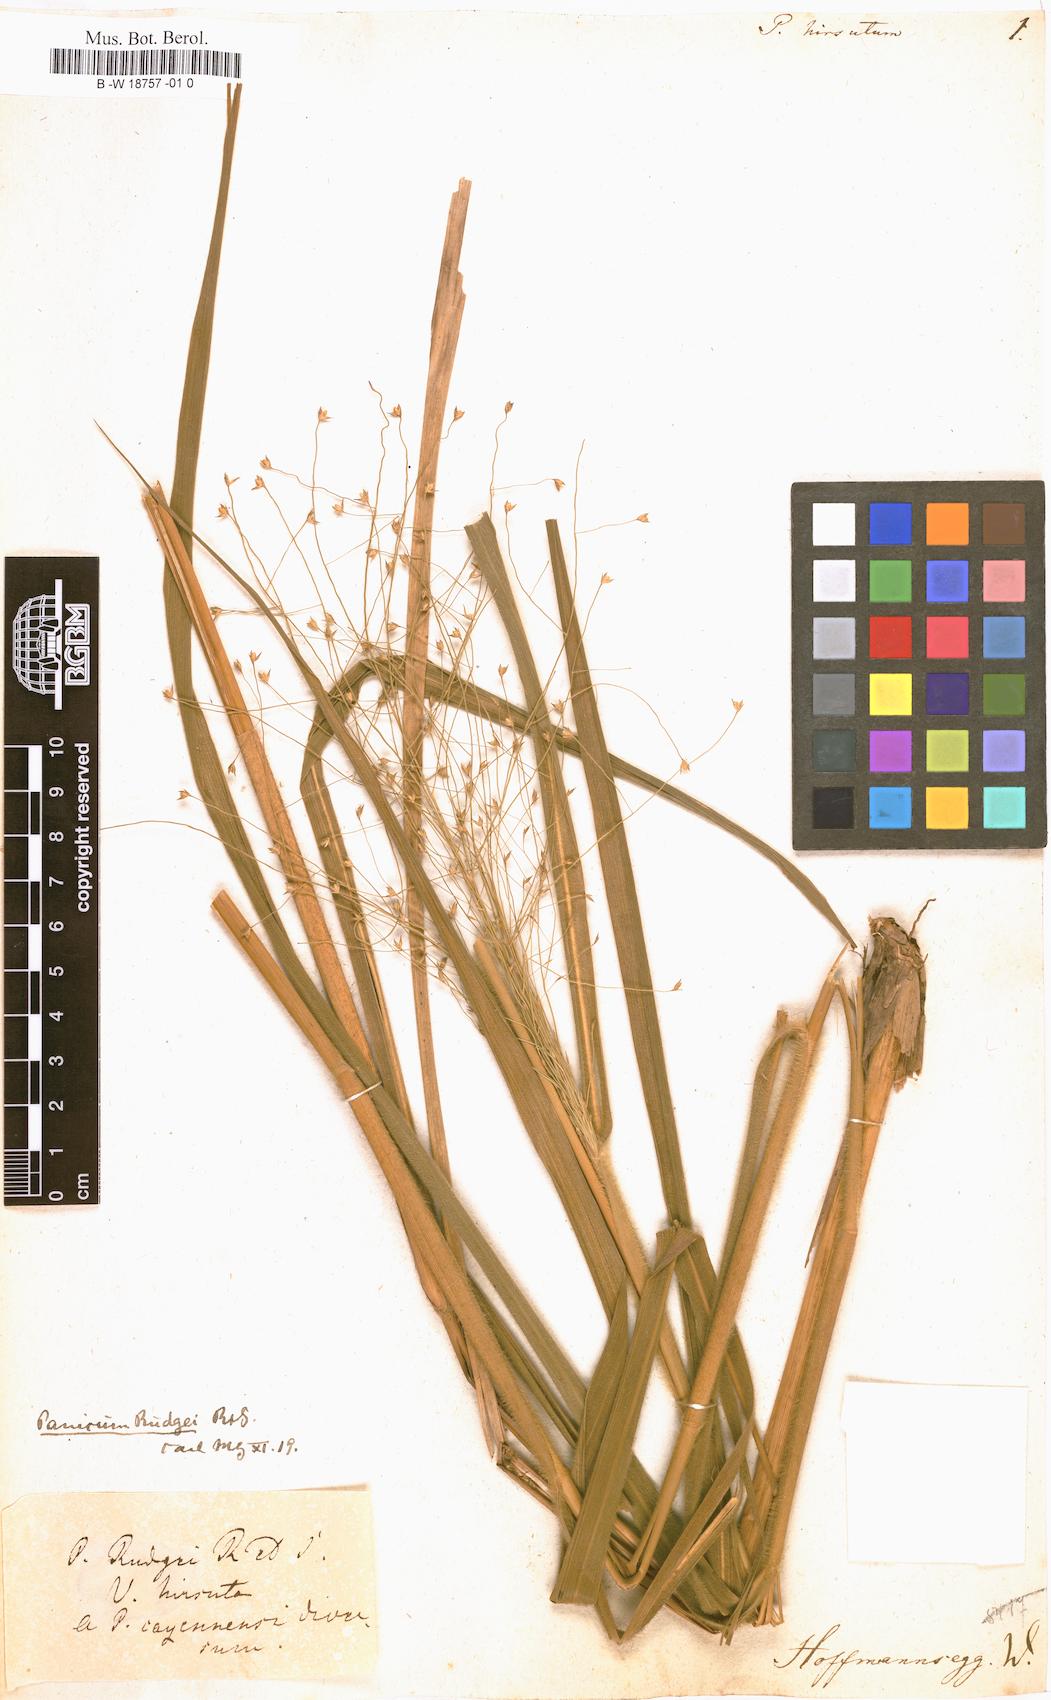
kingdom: Plantae
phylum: Tracheophyta
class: Liliopsida
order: Poales
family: Poaceae
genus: Panicum
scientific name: Panicum hirsutum
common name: Giant witchgrass
